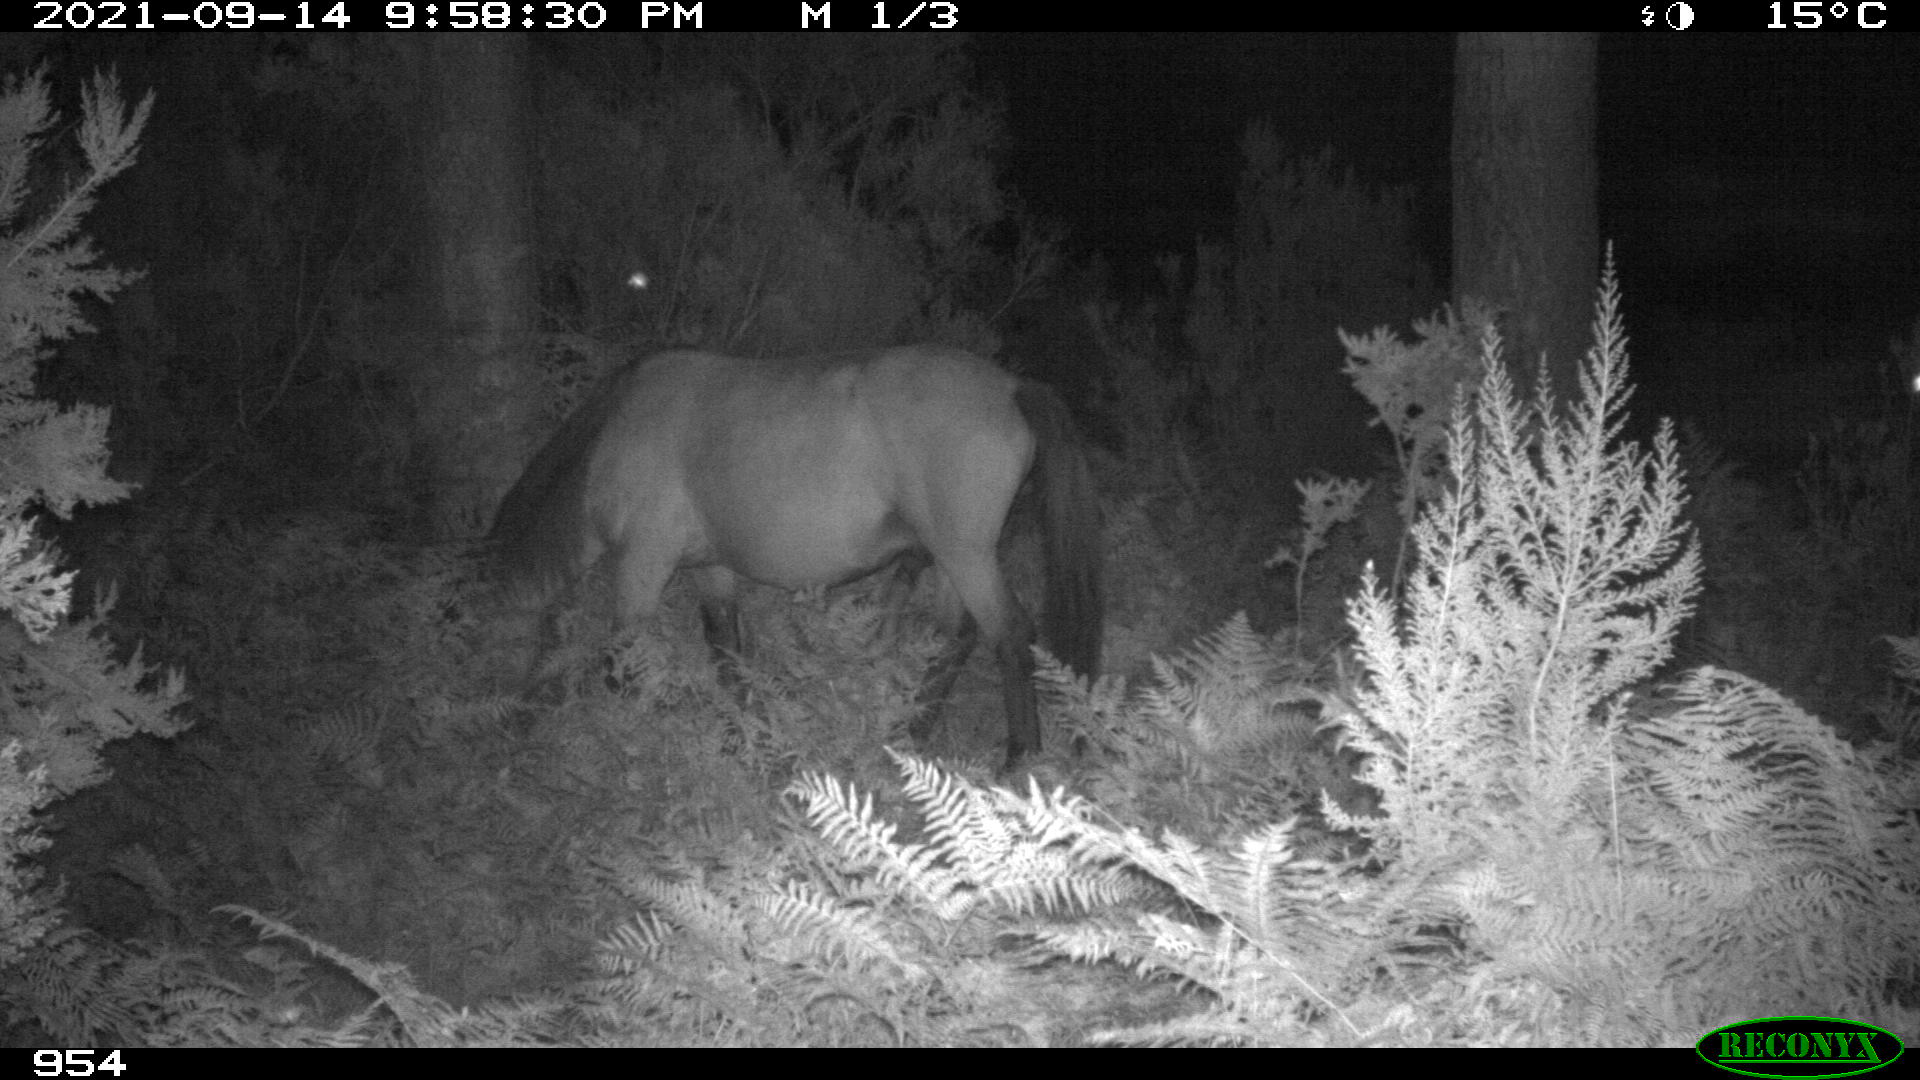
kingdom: Animalia
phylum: Chordata
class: Mammalia
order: Perissodactyla
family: Equidae
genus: Equus
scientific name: Equus caballus
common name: Horse
